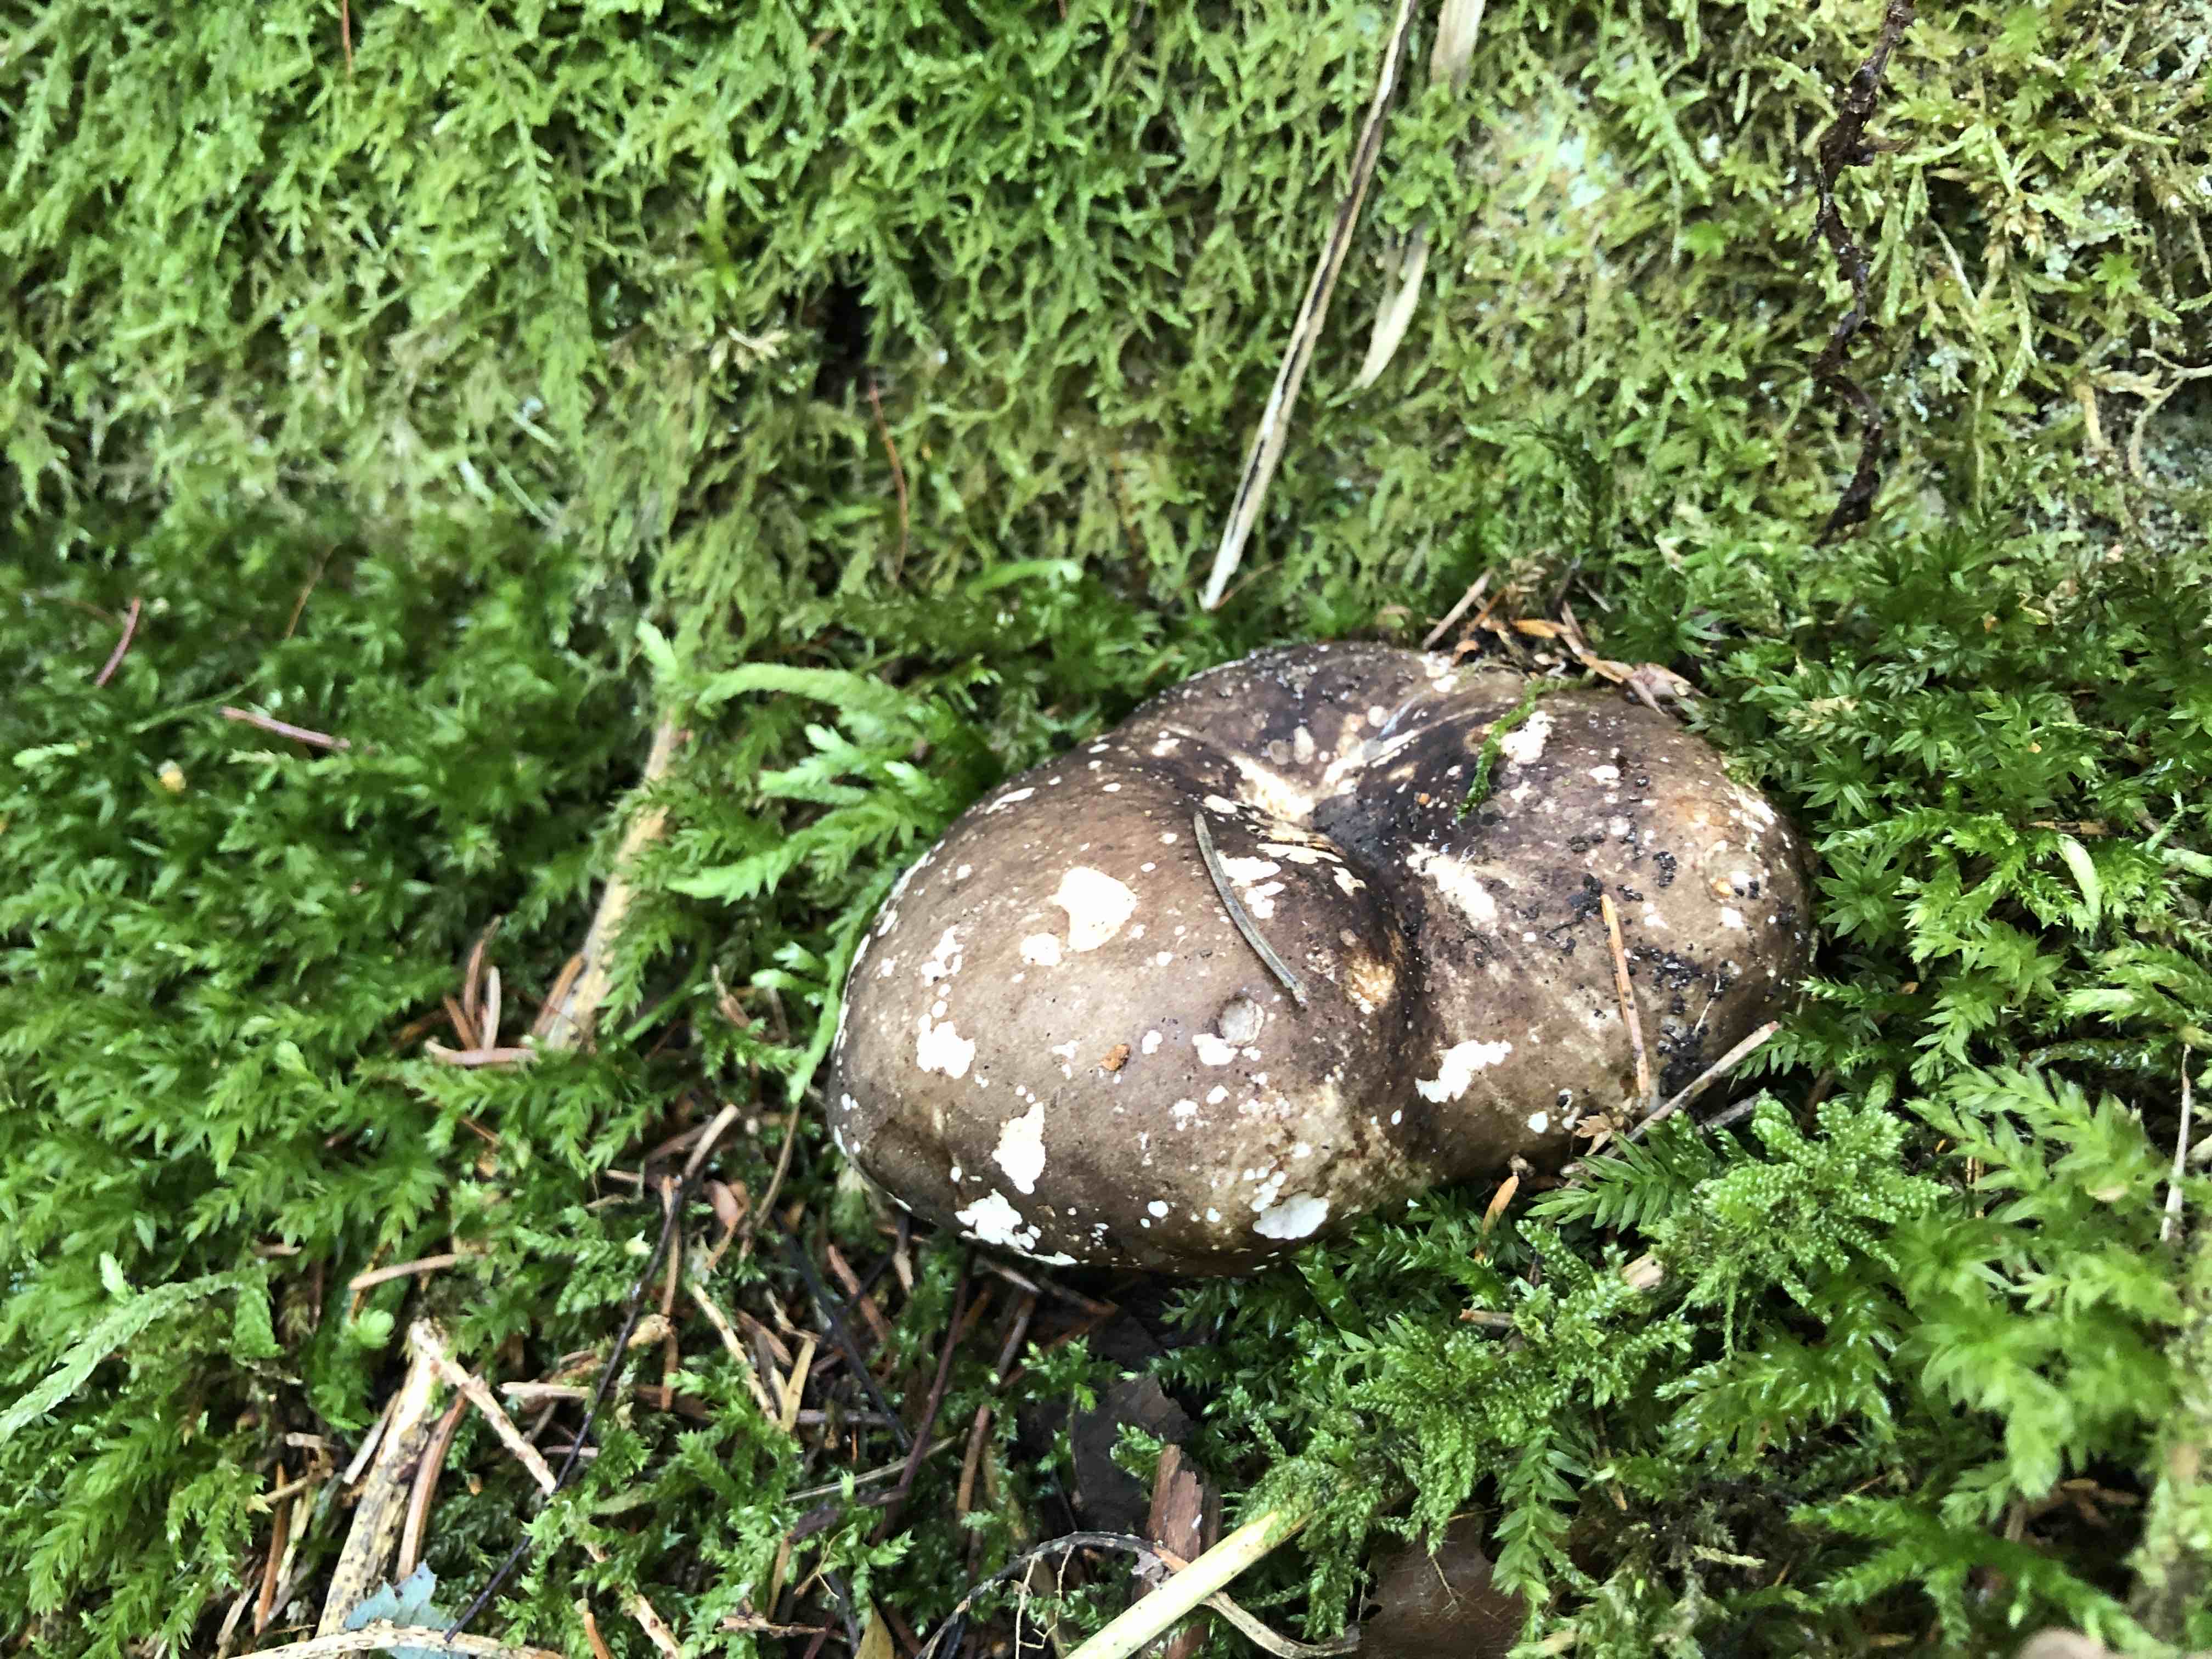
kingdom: Fungi
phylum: Basidiomycota
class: Agaricomycetes
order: Russulales
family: Russulaceae
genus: Russula
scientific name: Russula adusta
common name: sværtende skørhat
